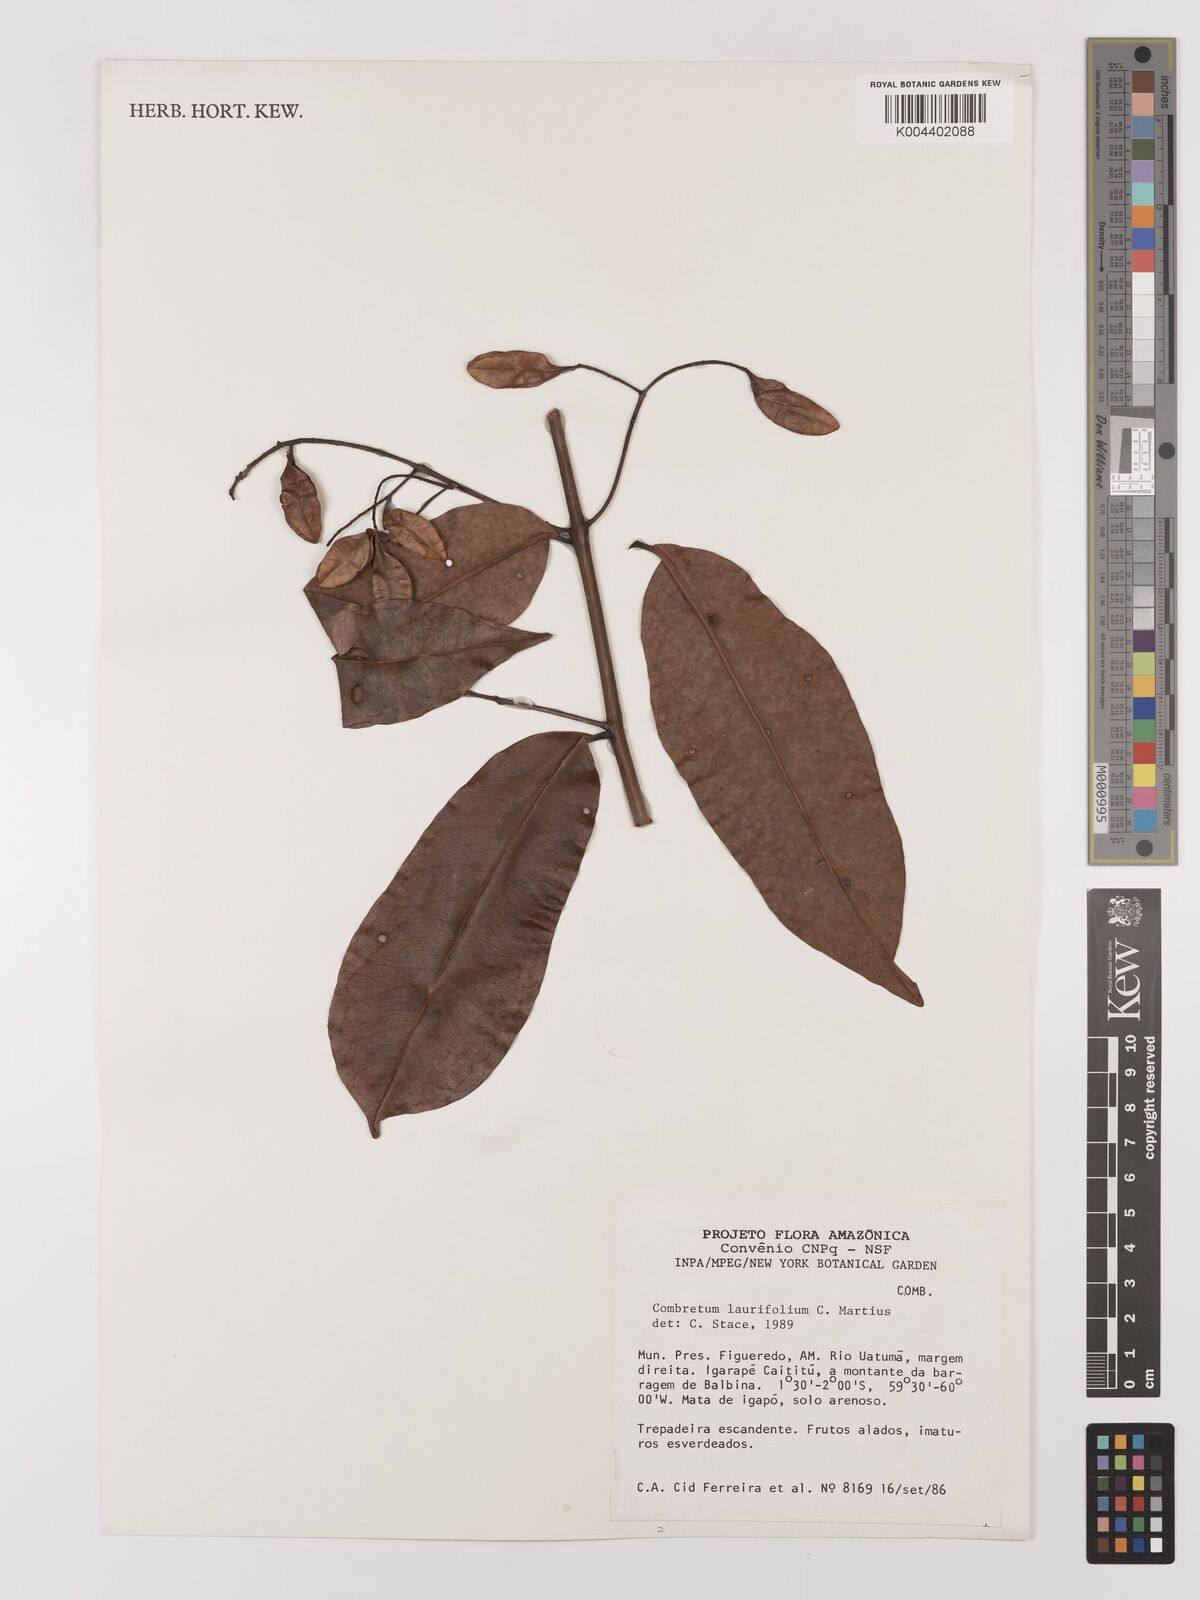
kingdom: Plantae
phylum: Tracheophyta
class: Magnoliopsida
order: Myrtales
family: Combretaceae
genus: Combretum
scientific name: Combretum
